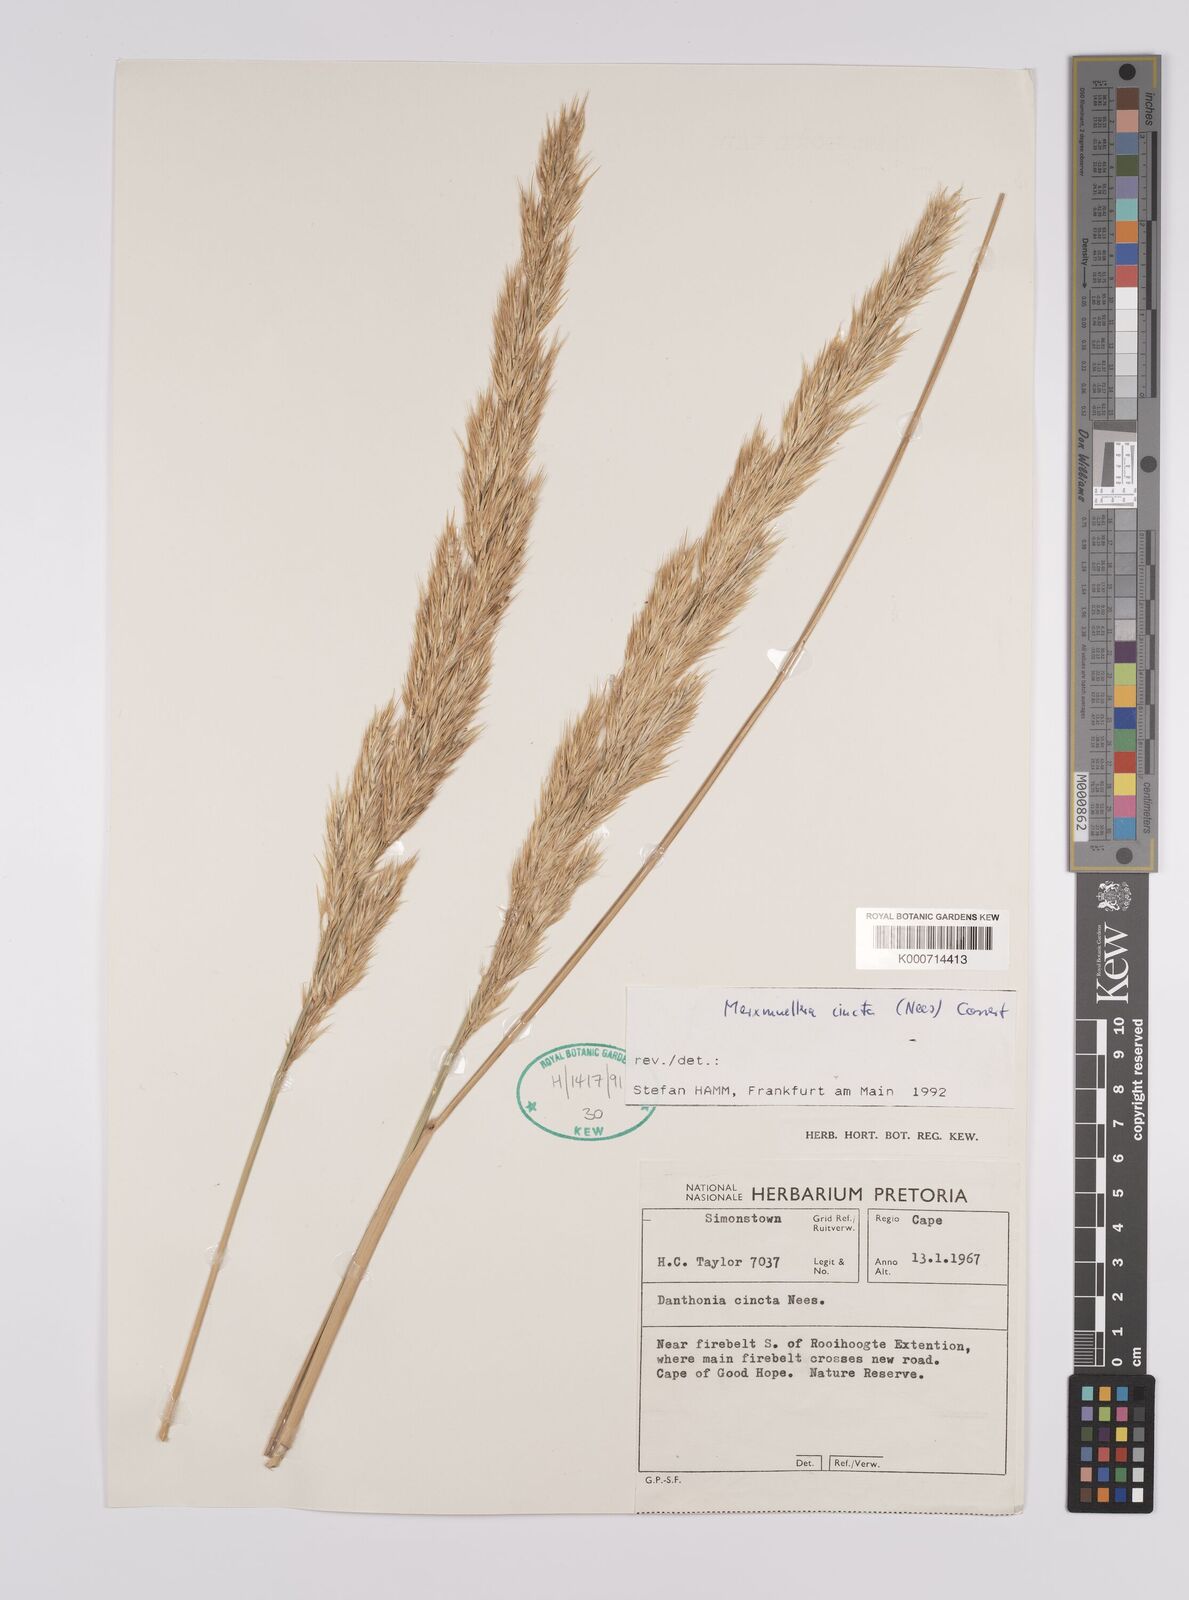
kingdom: Plantae
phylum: Tracheophyta
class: Liliopsida
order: Poales
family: Poaceae
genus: Rytidosperma
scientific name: Rytidosperma
